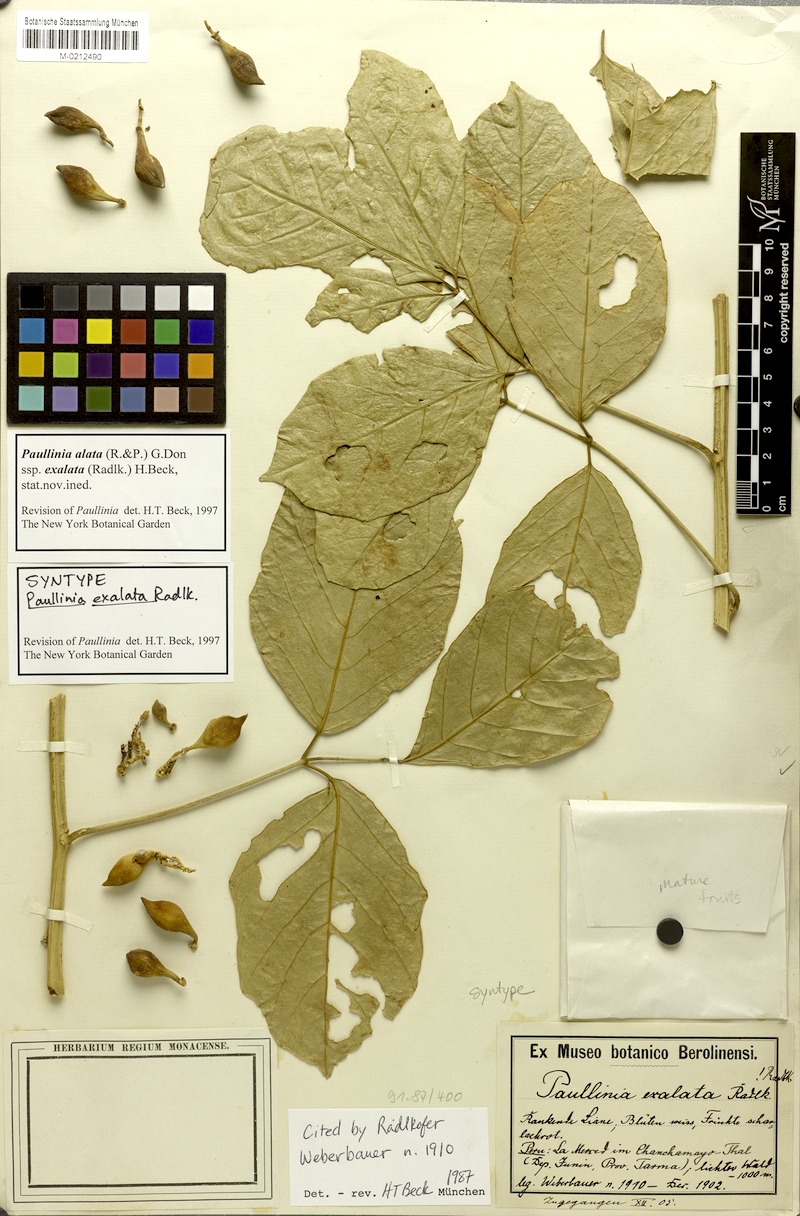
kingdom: Plantae
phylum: Tracheophyta
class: Magnoliopsida
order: Sapindales
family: Sapindaceae
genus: Paullinia
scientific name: Paullinia exalata
